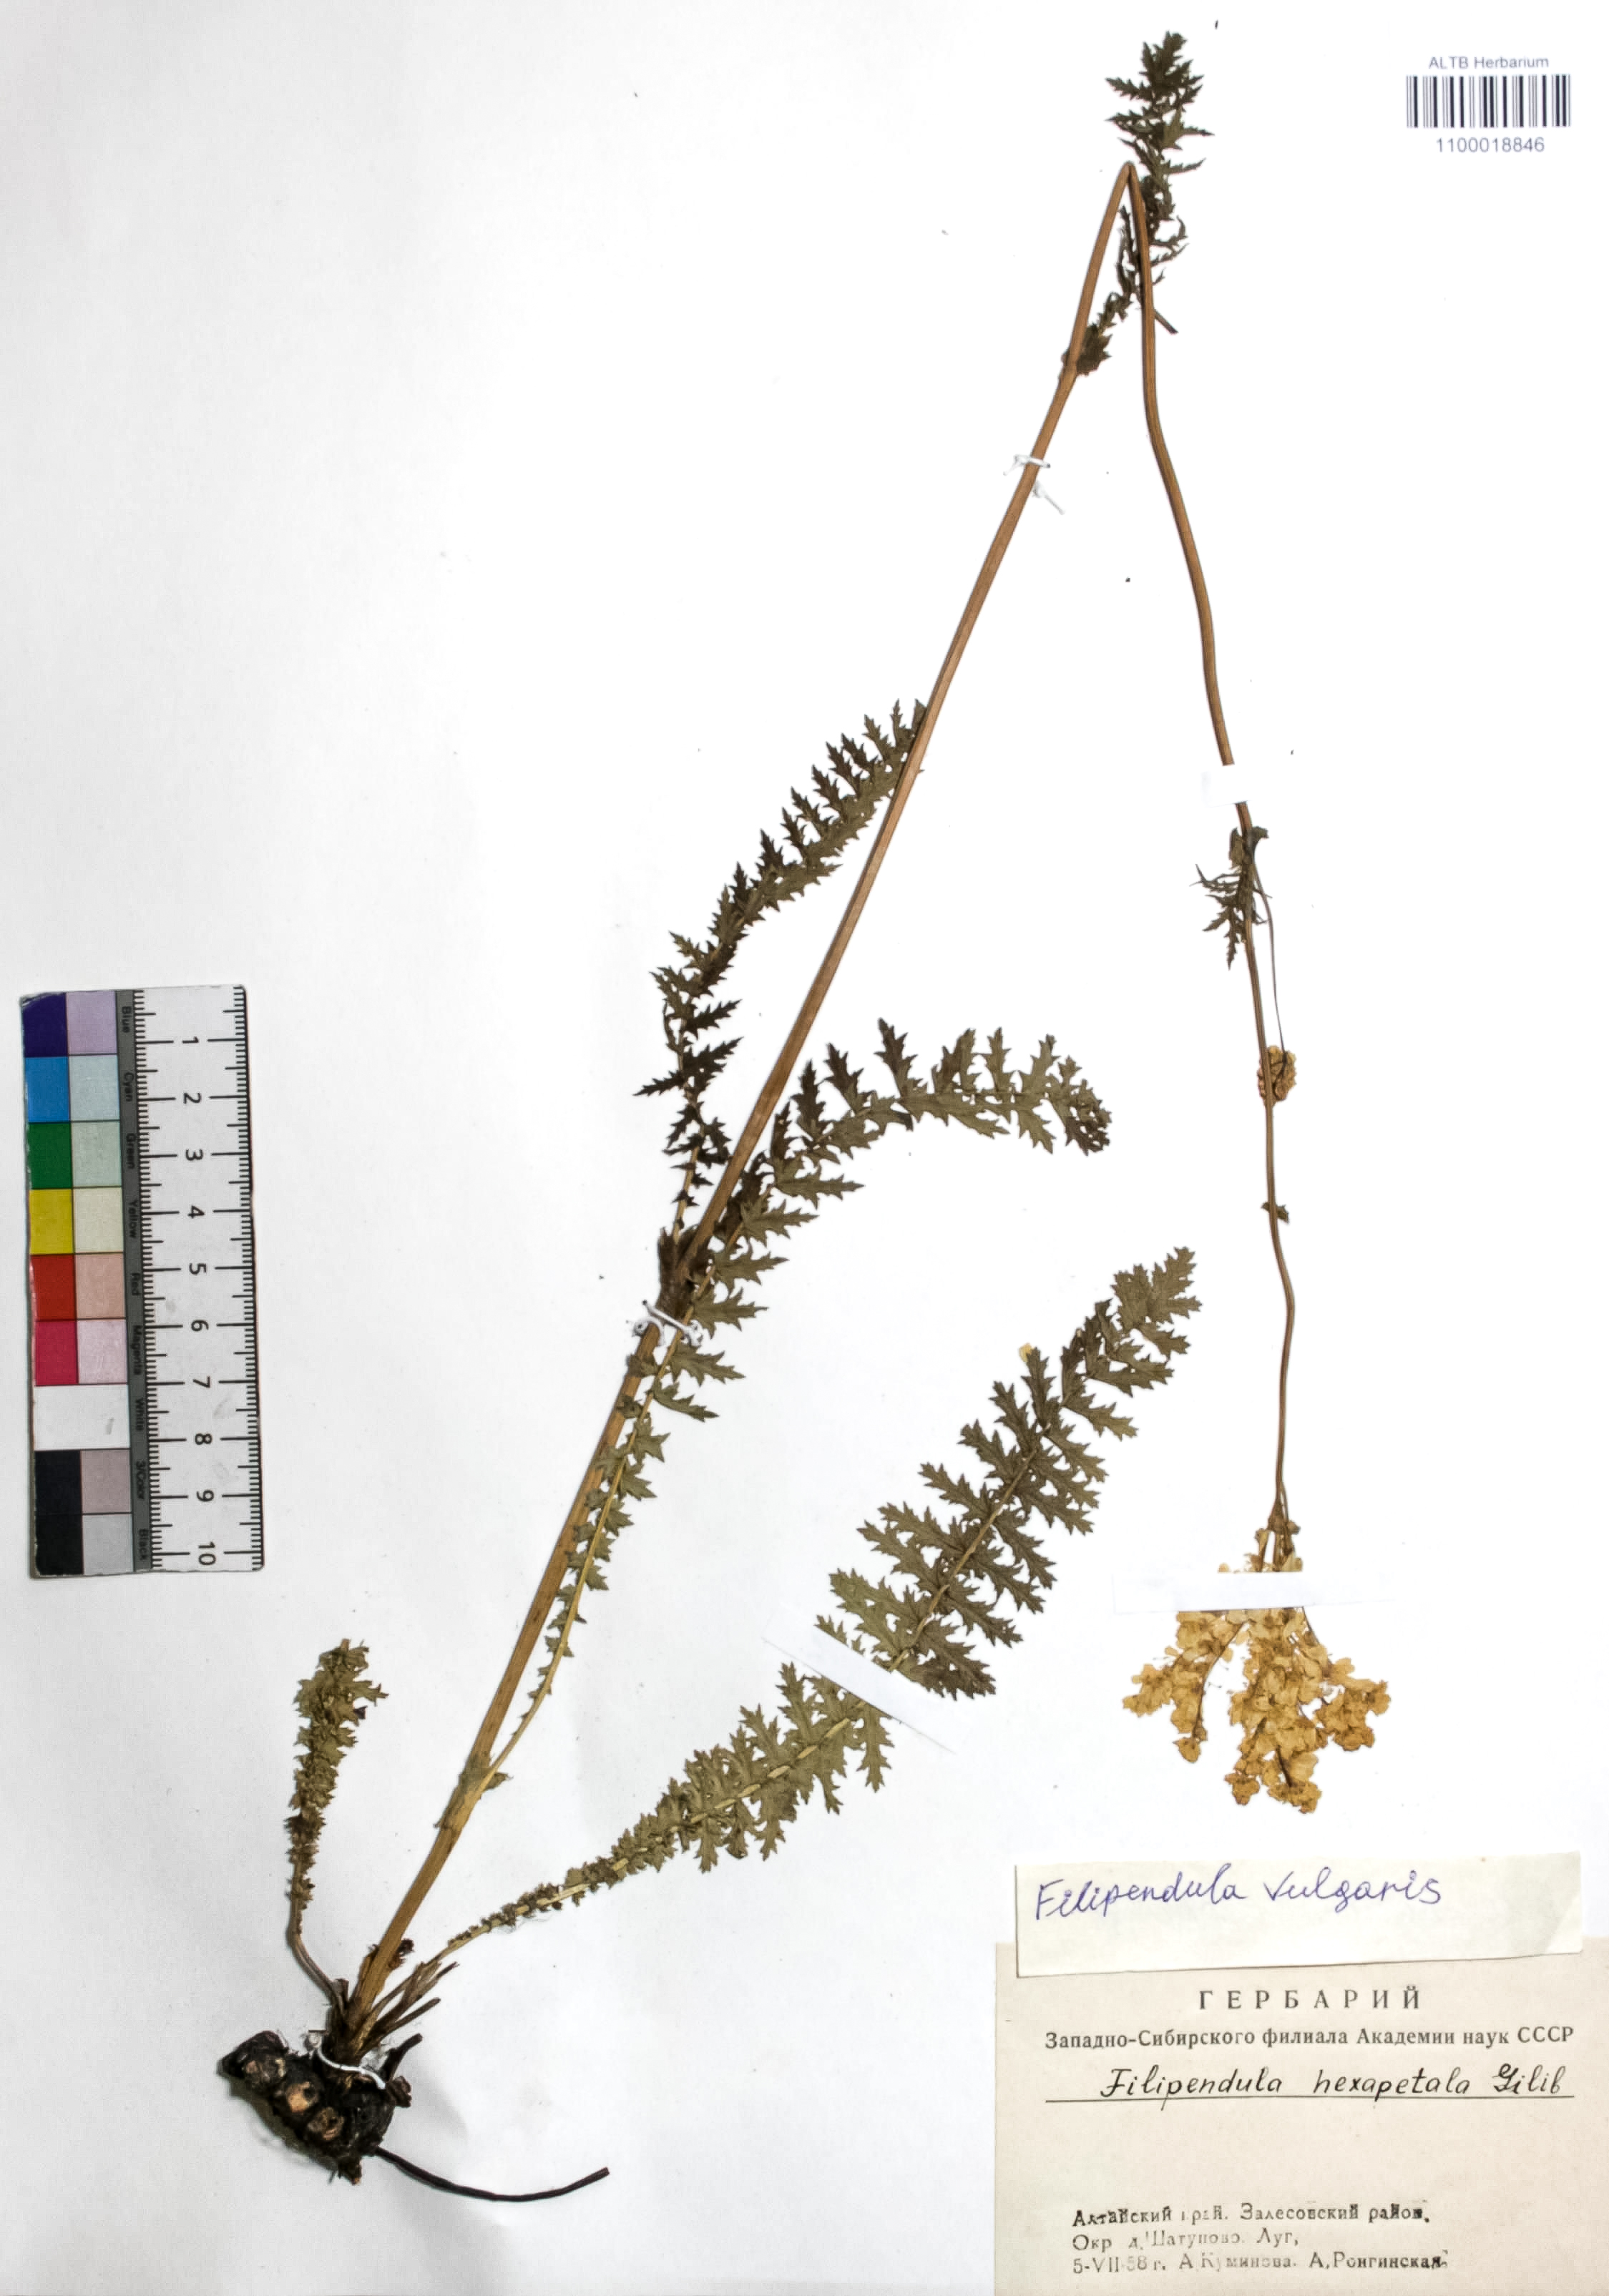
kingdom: Plantae
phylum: Tracheophyta
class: Magnoliopsida
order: Rosales
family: Rosaceae
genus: Filipendula
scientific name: Filipendula vulgaris
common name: Dropwort
